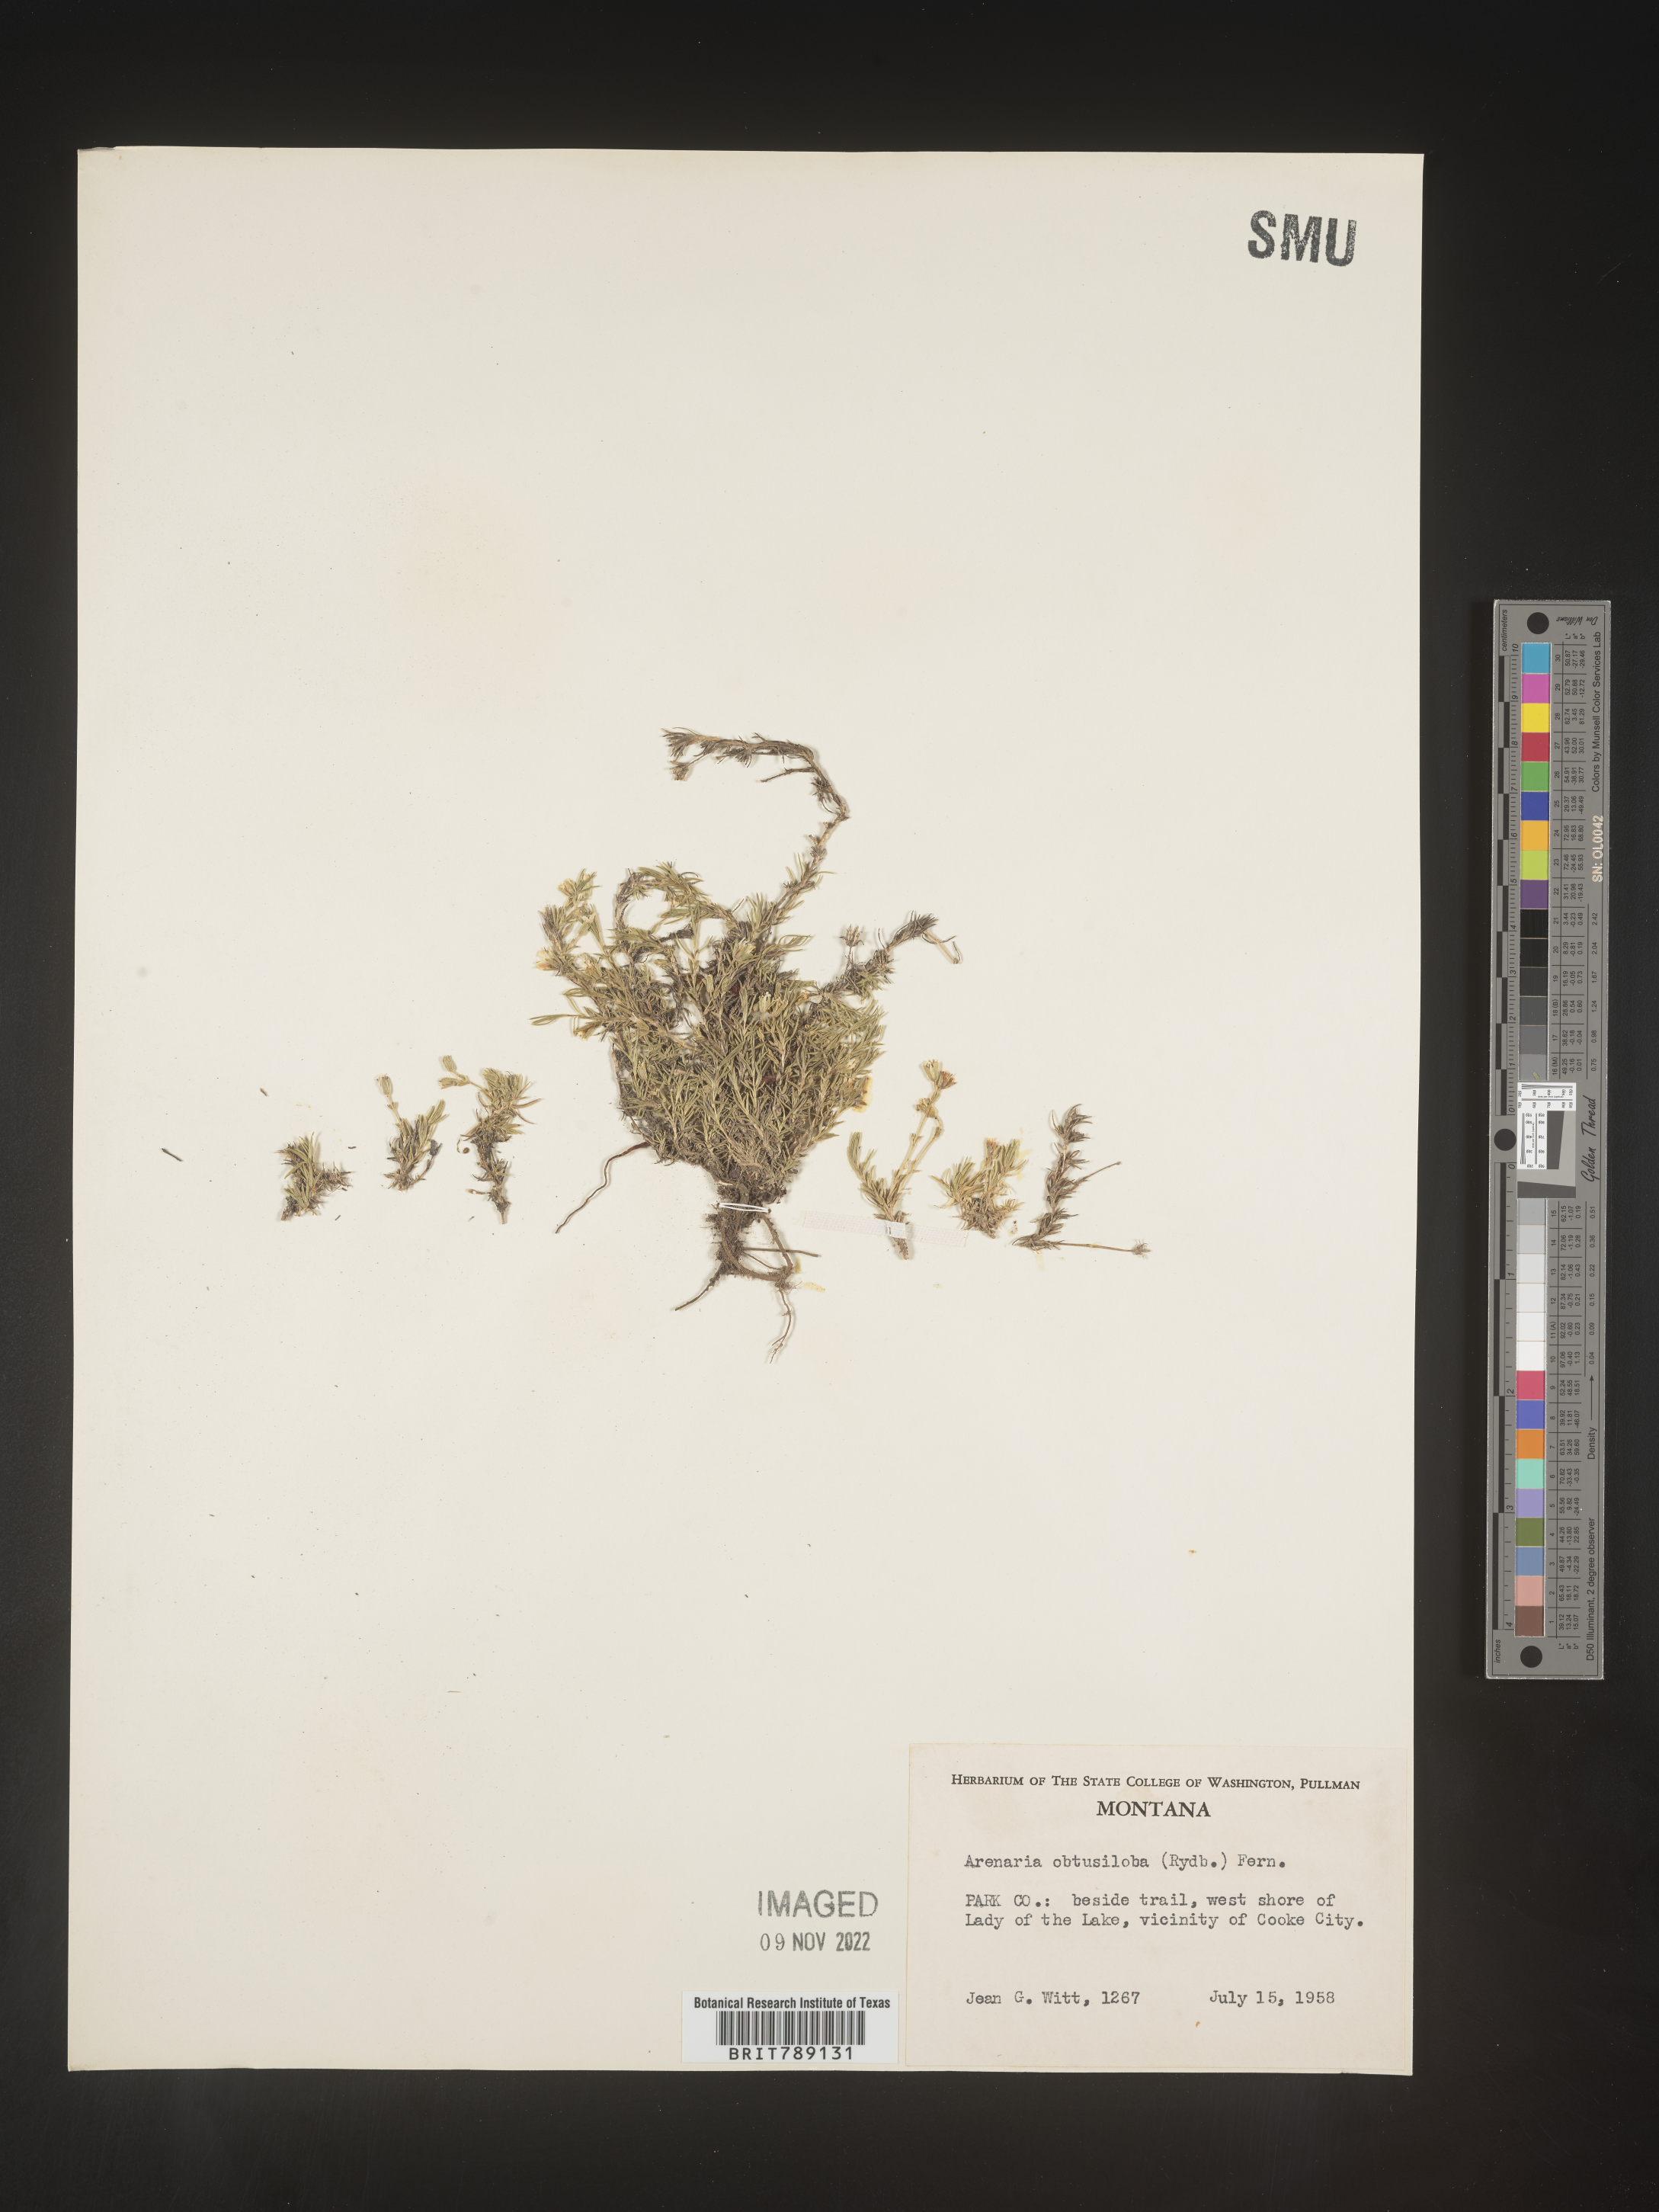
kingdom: Plantae
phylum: Tracheophyta
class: Magnoliopsida
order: Caryophyllales
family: Caryophyllaceae
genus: Arenaria
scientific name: Arenaria
